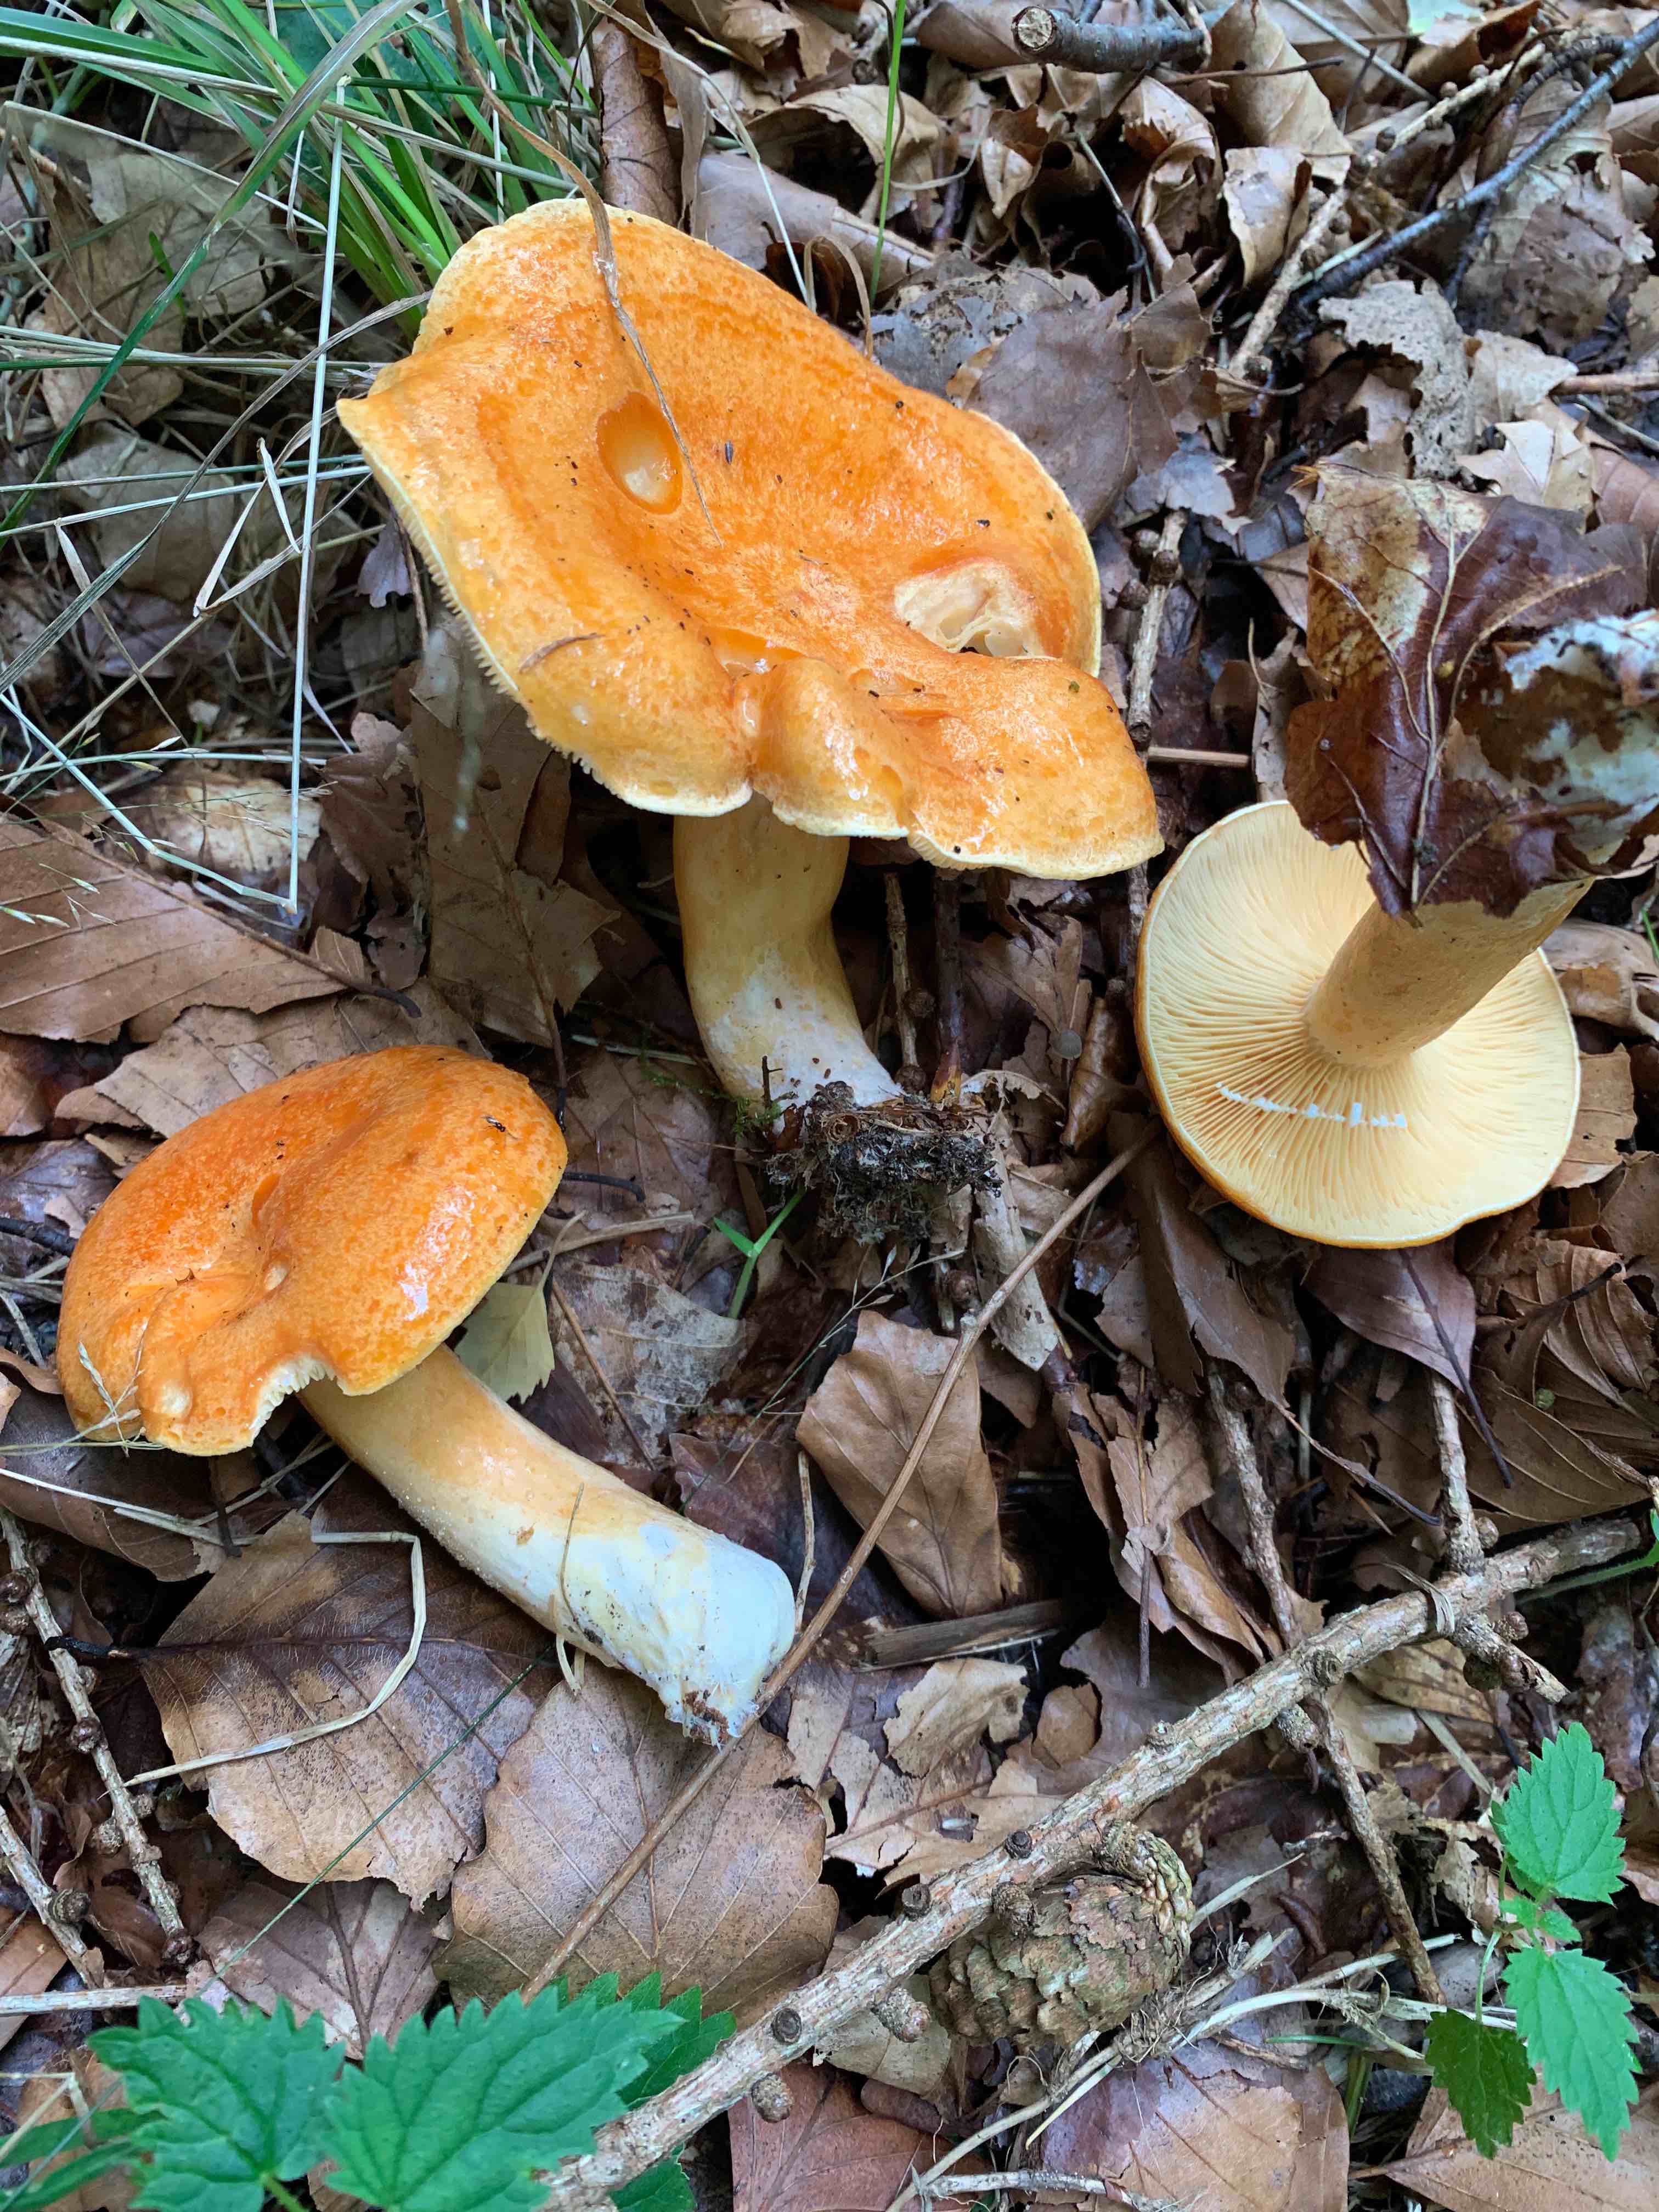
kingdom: Fungi
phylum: Basidiomycota
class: Agaricomycetes
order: Russulales
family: Russulaceae
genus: Lactarius
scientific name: Lactarius porninsis
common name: lærke-mælkehat
